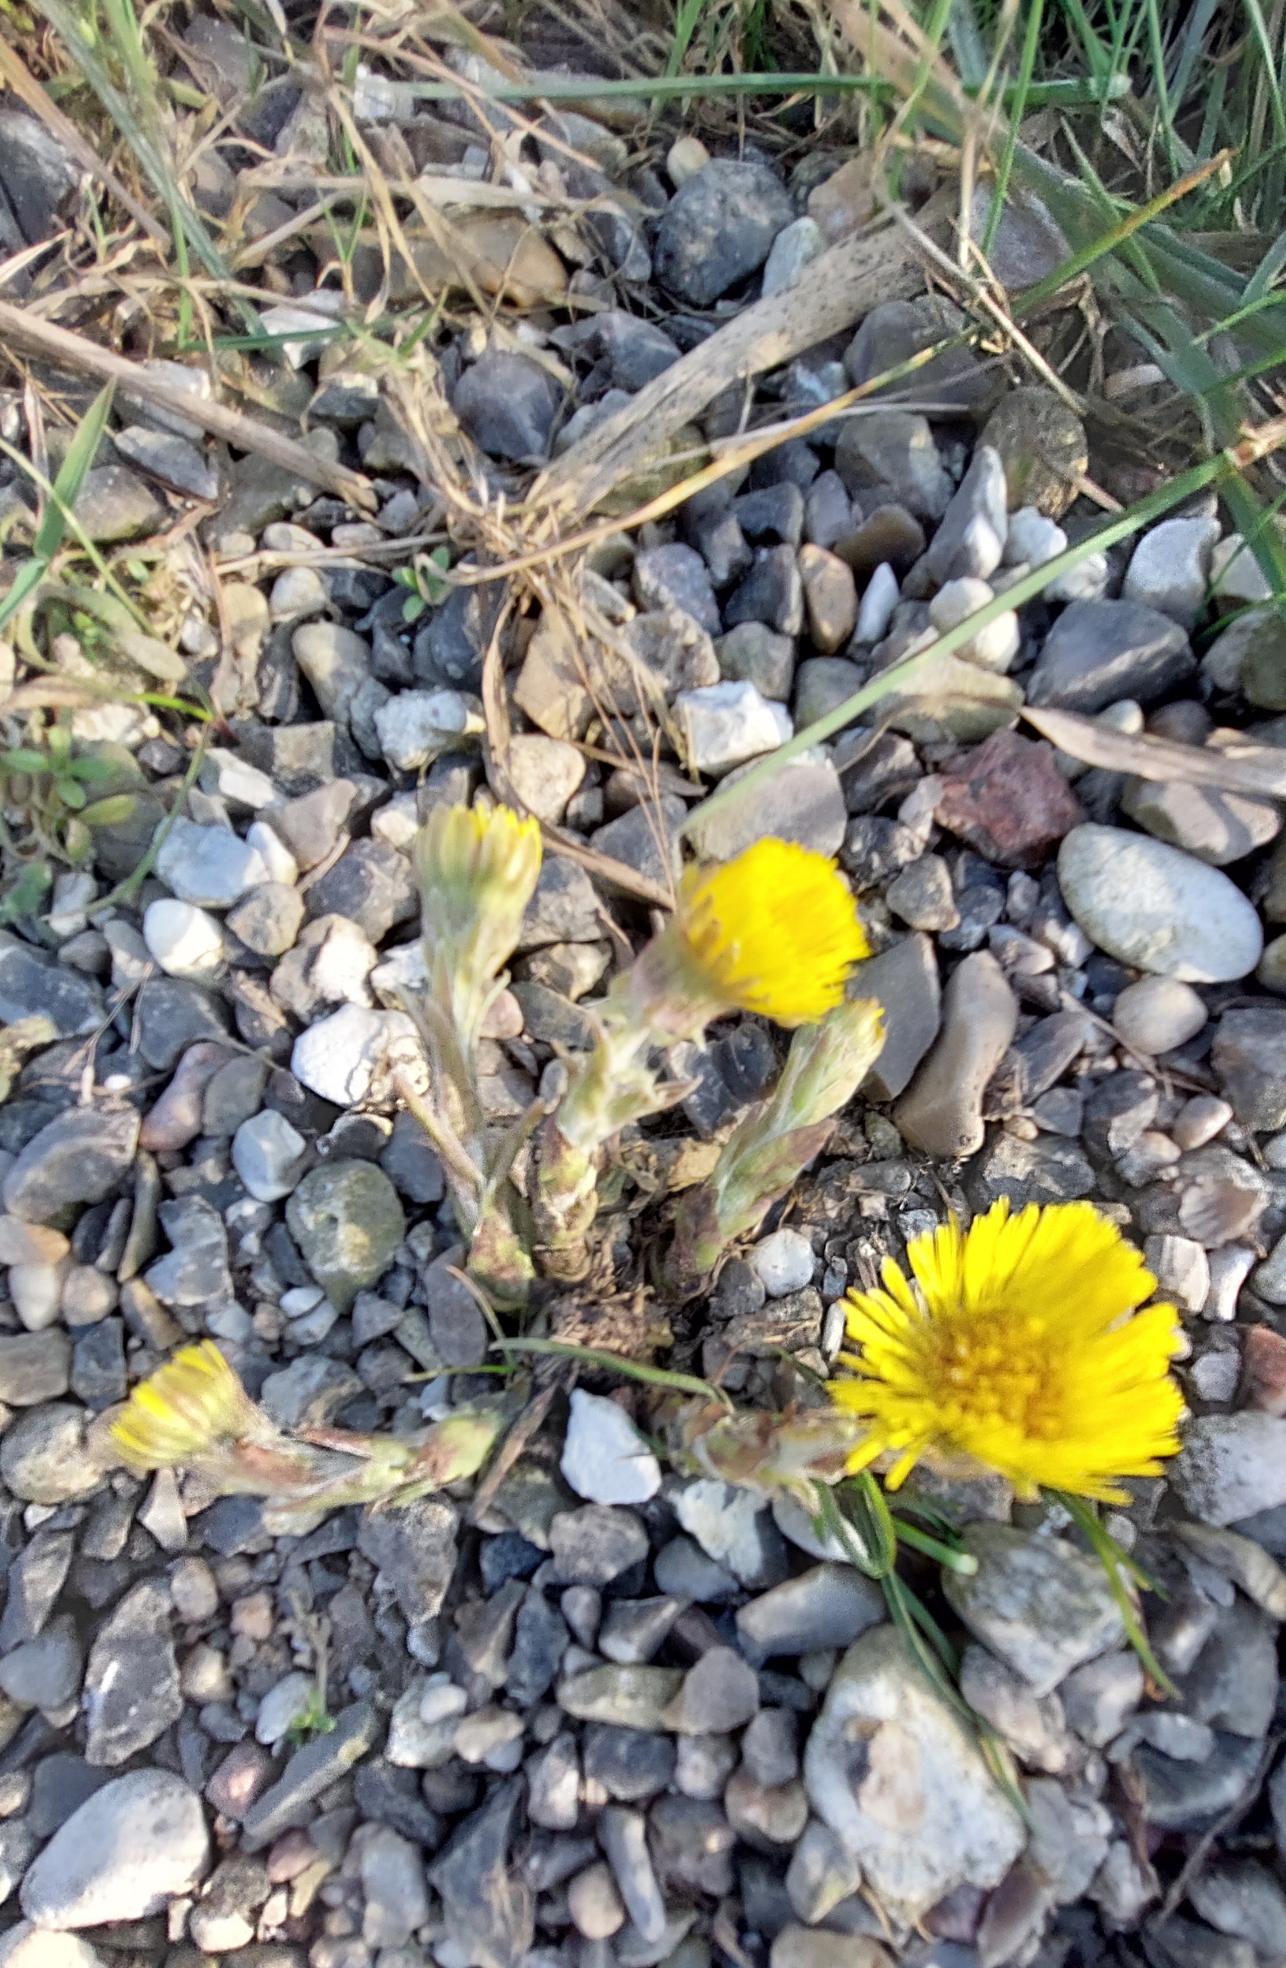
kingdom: Plantae
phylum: Tracheophyta
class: Magnoliopsida
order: Asterales
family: Asteraceae
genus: Tussilago
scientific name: Tussilago farfara
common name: Følfod
